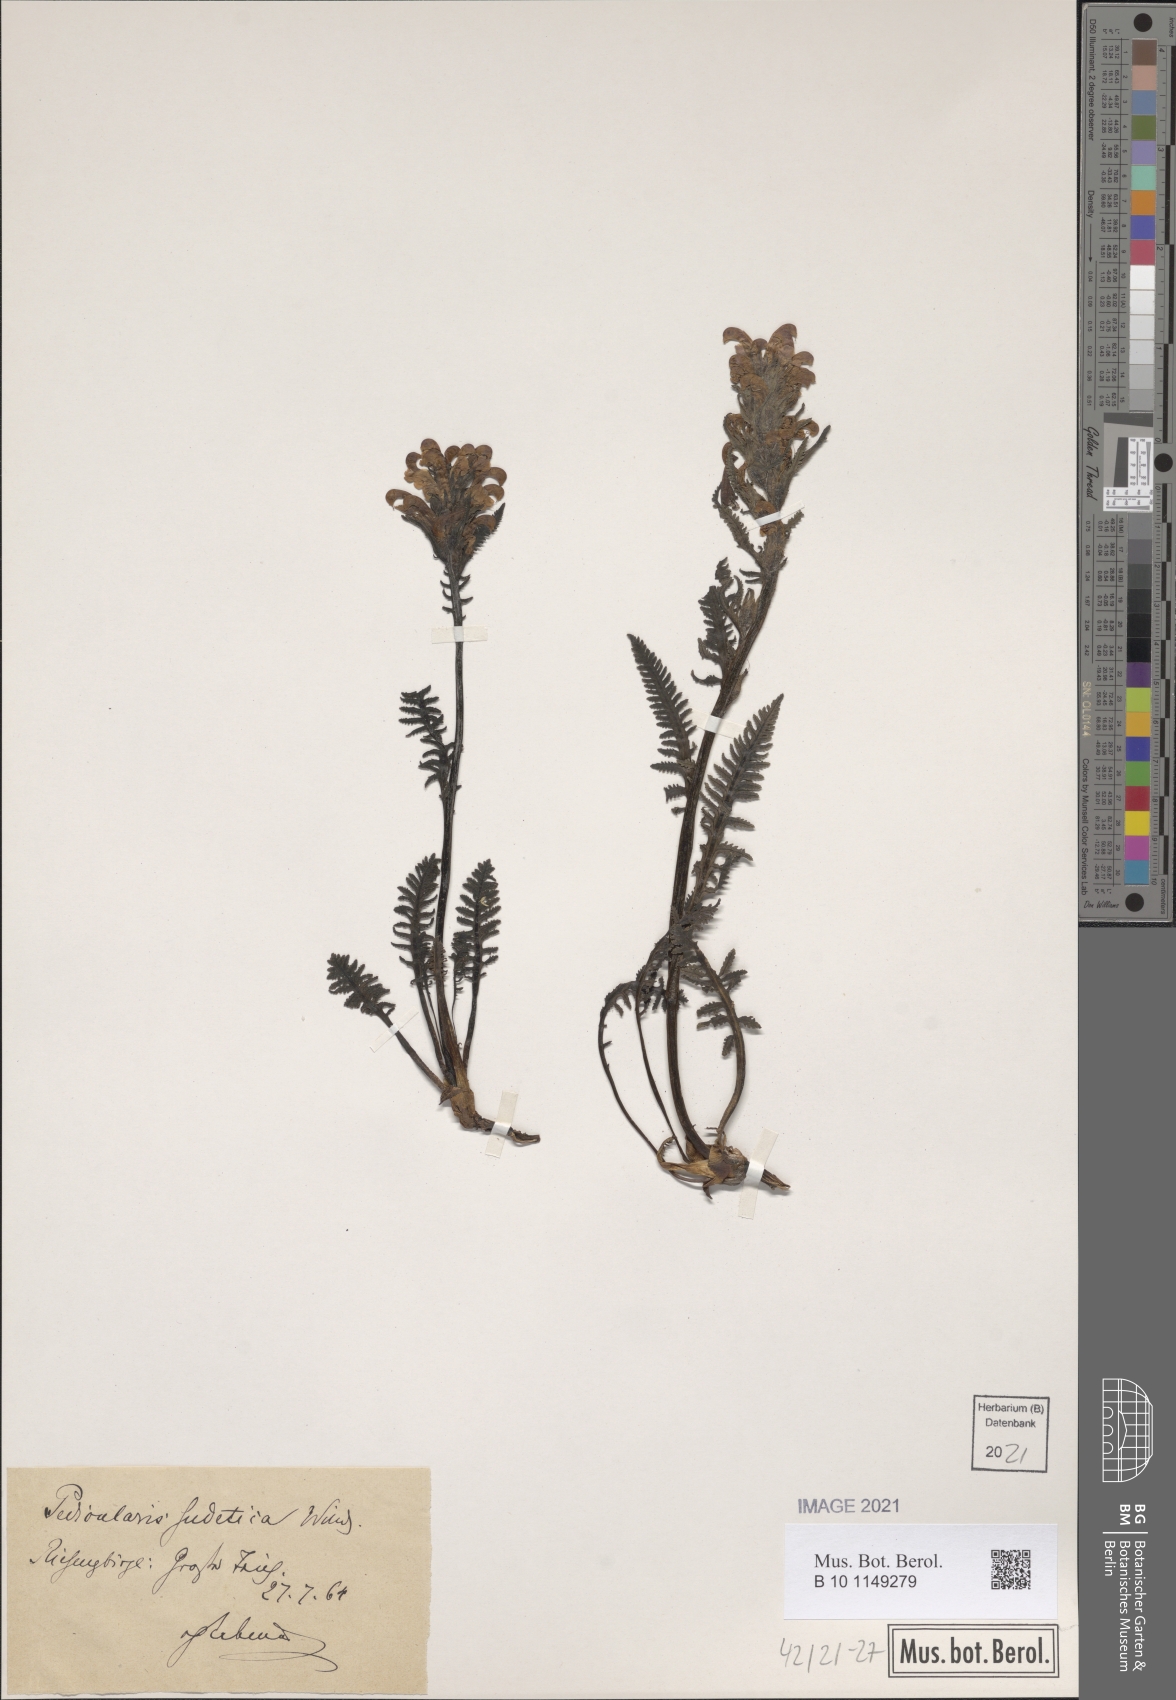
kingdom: Plantae
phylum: Tracheophyta
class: Magnoliopsida
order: Lamiales
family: Orobanchaceae
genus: Pedicularis
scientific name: Pedicularis sudetica
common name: Sudeten lousewort
